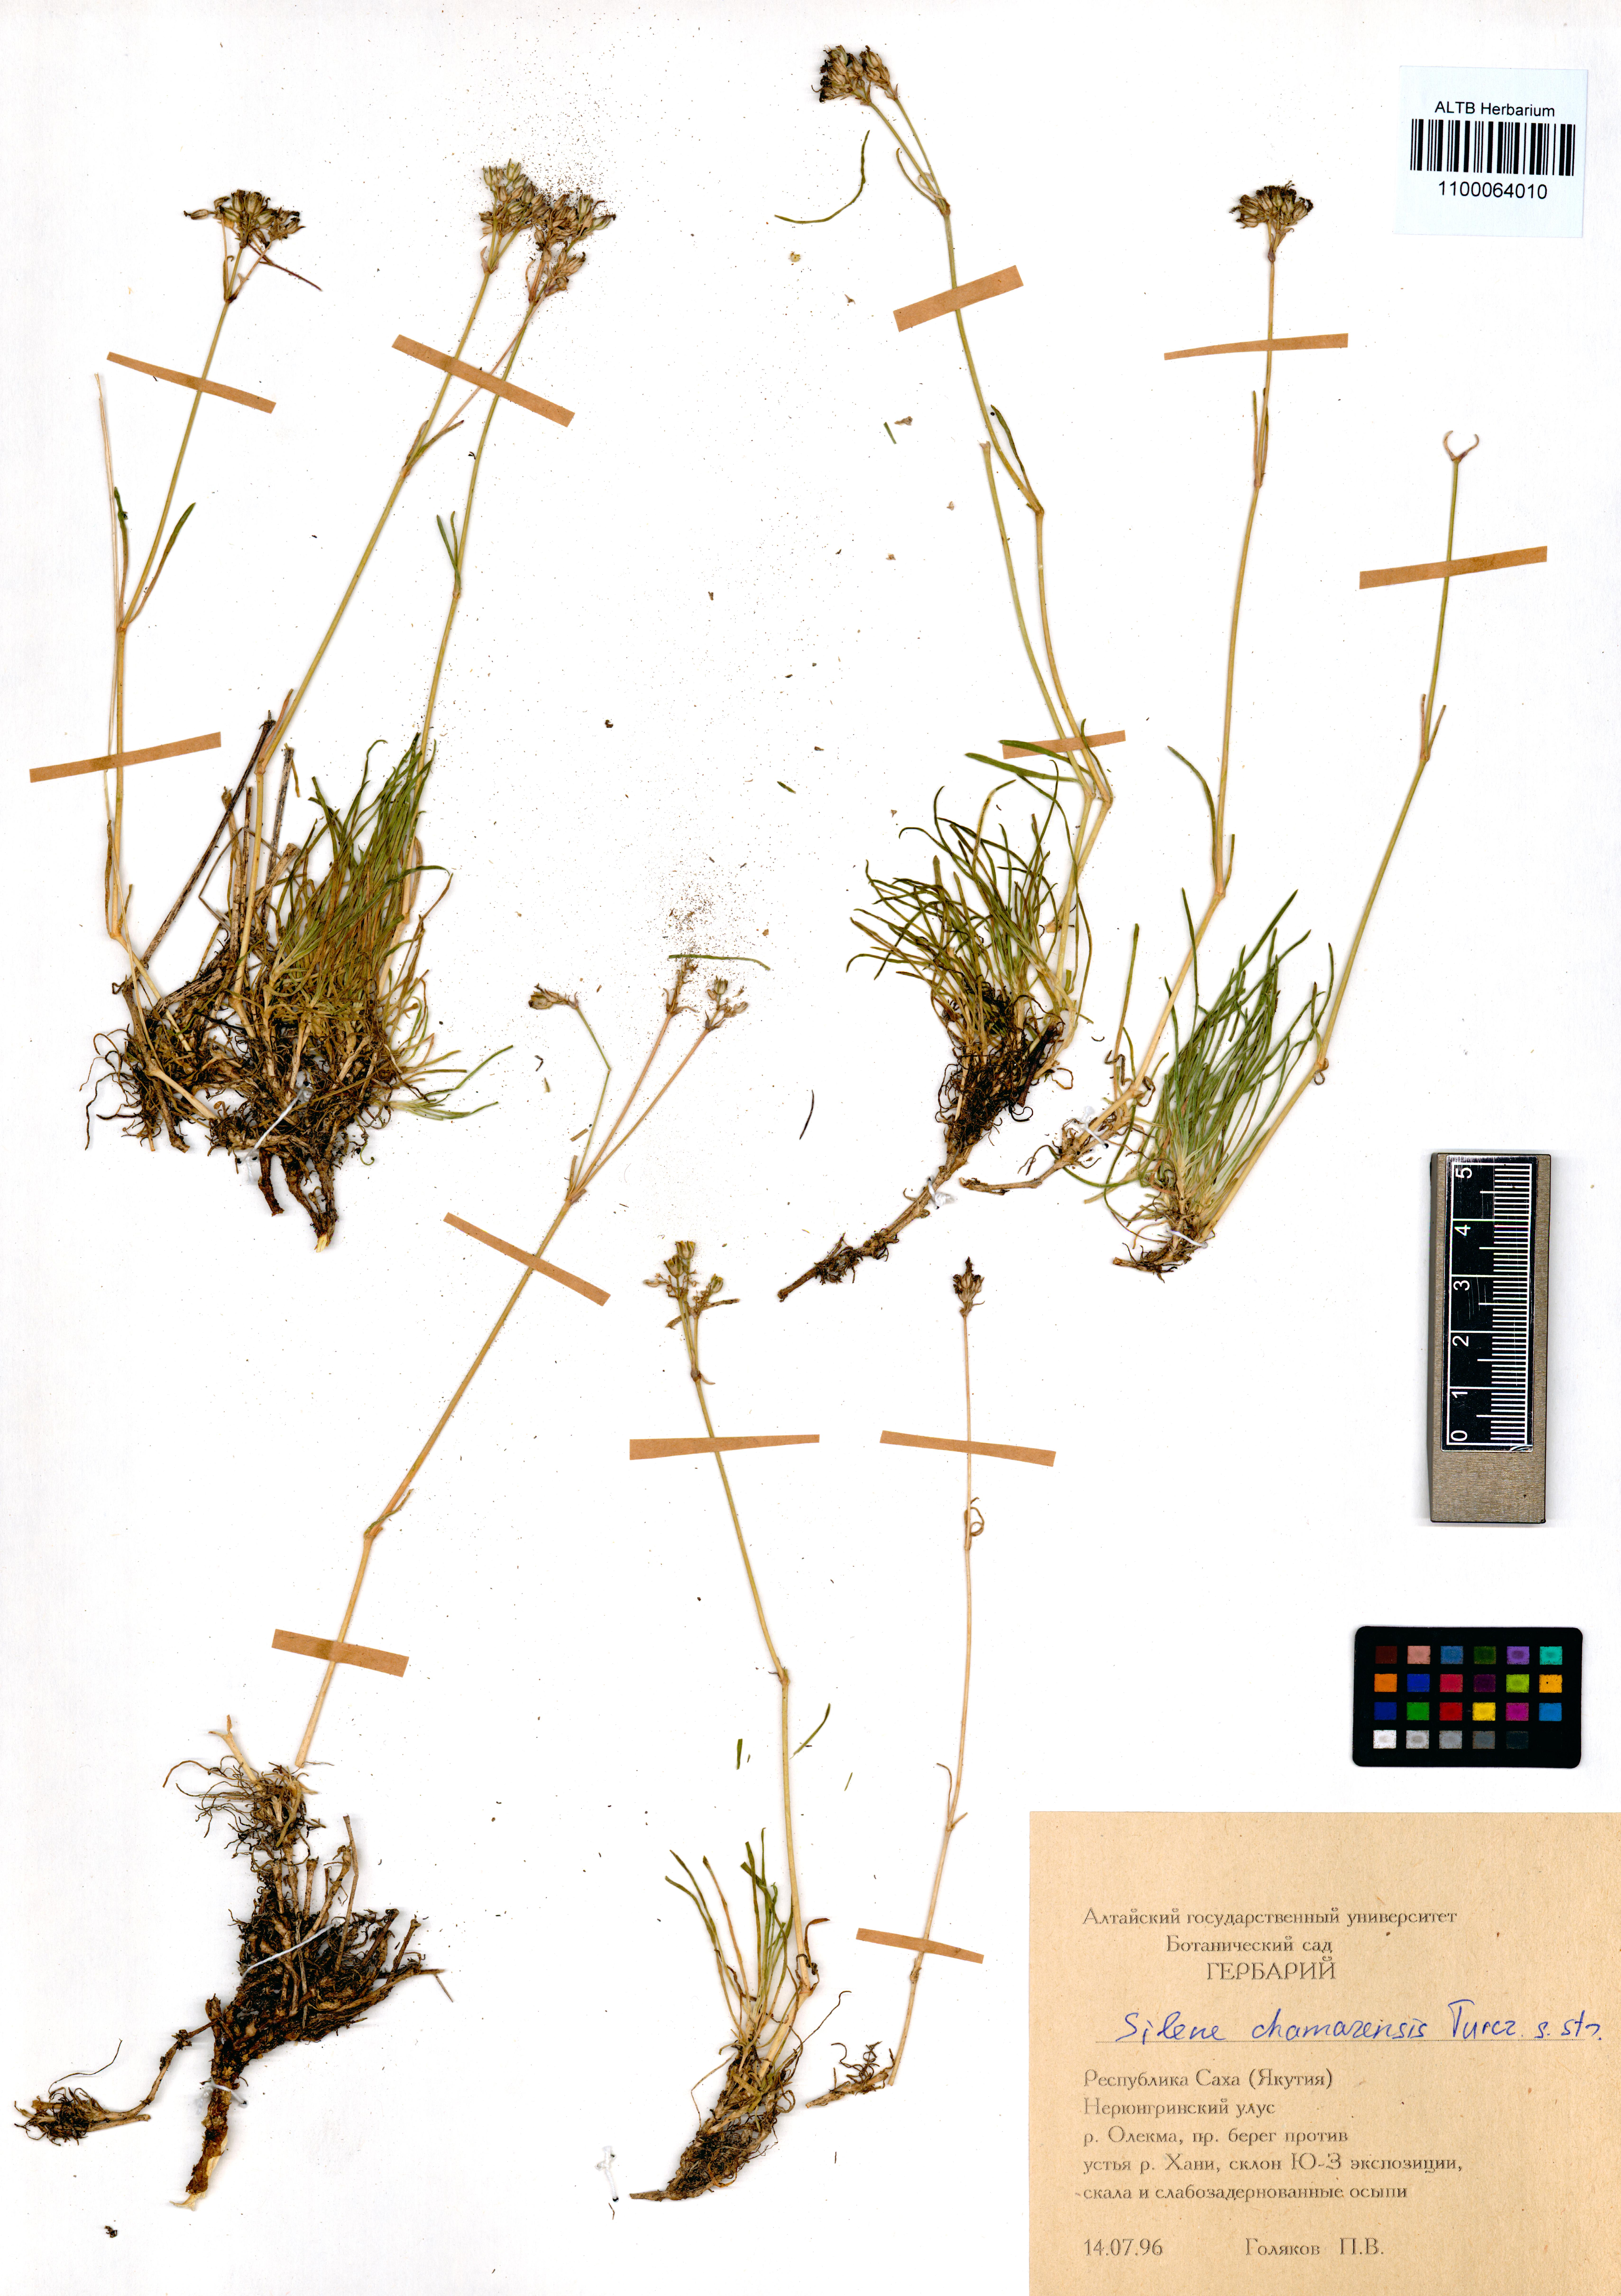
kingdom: Plantae
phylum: Tracheophyta
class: Magnoliopsida
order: Caryophyllales
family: Caryophyllaceae
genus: Silene
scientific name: Silene chamarensis
